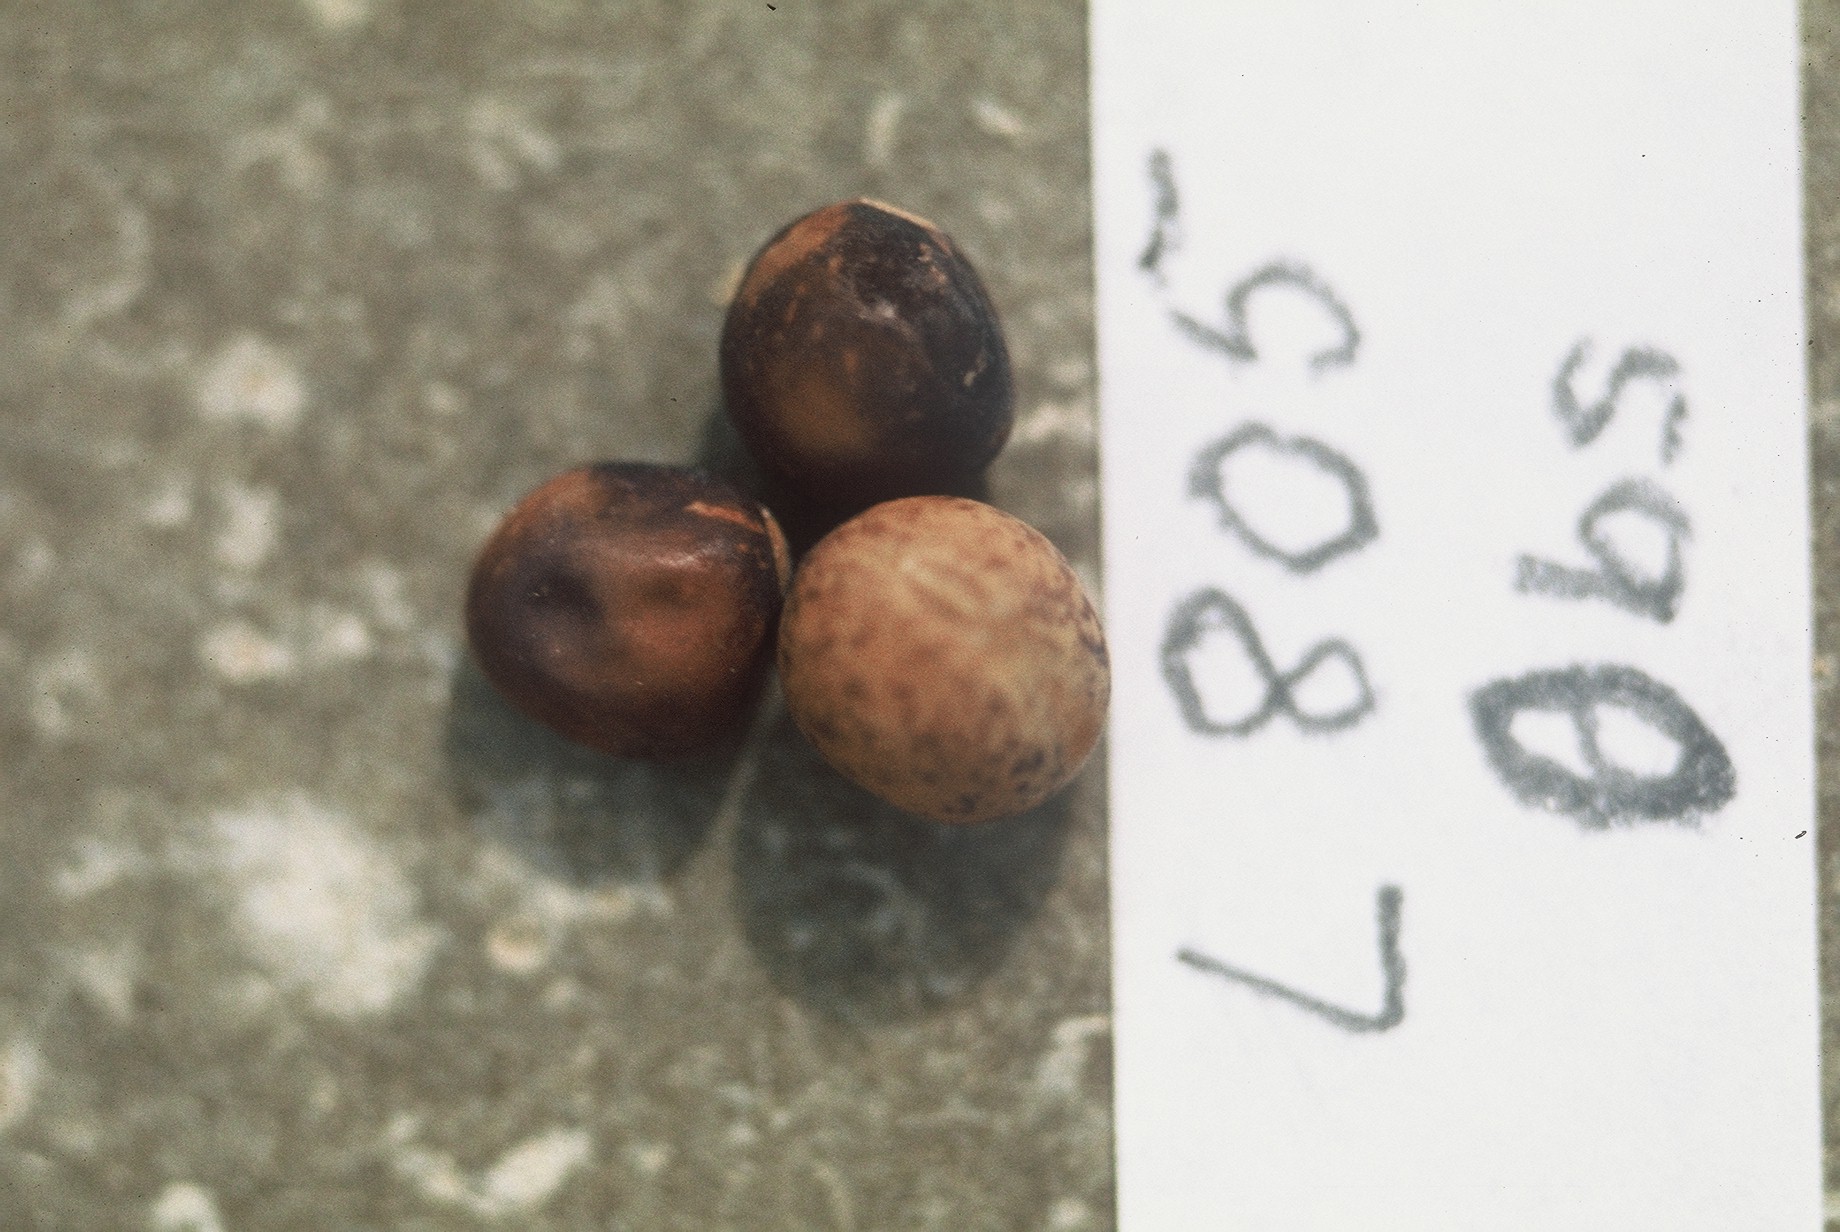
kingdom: Plantae
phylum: Tracheophyta
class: Magnoliopsida
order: Fabales
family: Fabaceae
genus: Lathyrus
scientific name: Lathyrus oleraceus
